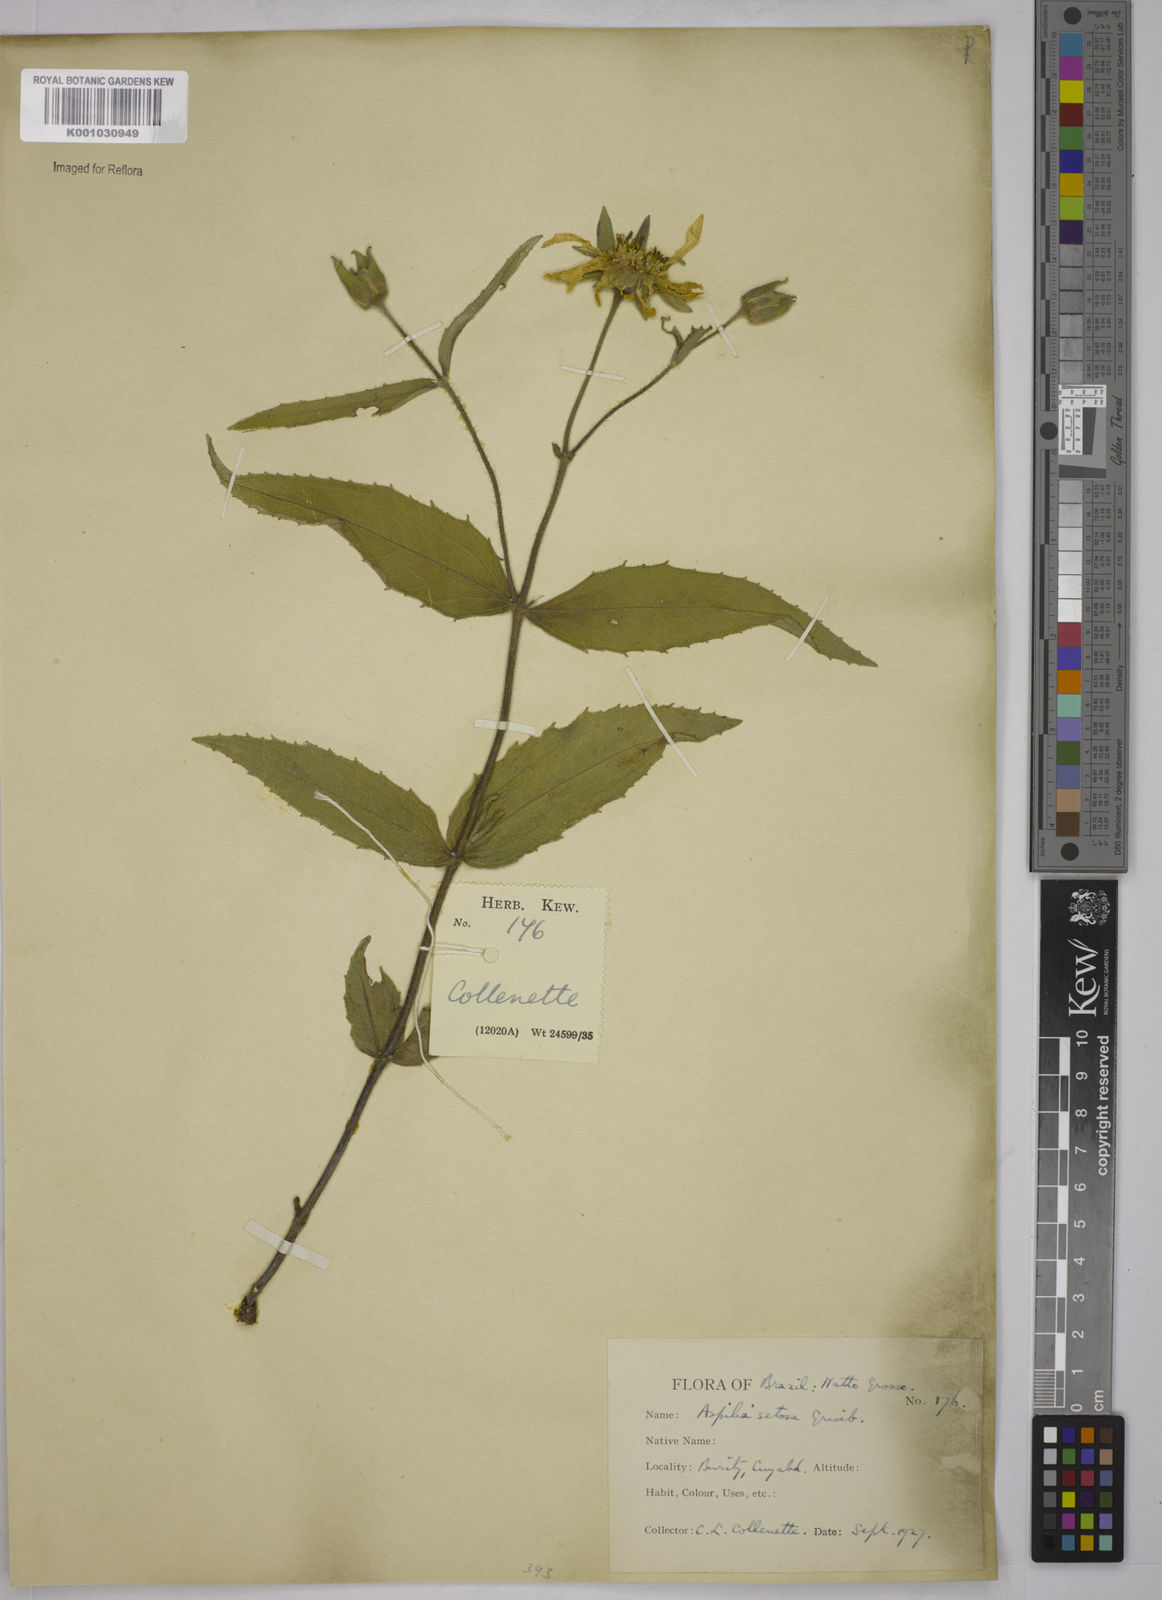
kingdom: Plantae
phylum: Tracheophyta
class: Magnoliopsida
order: Asterales
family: Asteraceae
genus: Aspilia
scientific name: Aspilia
